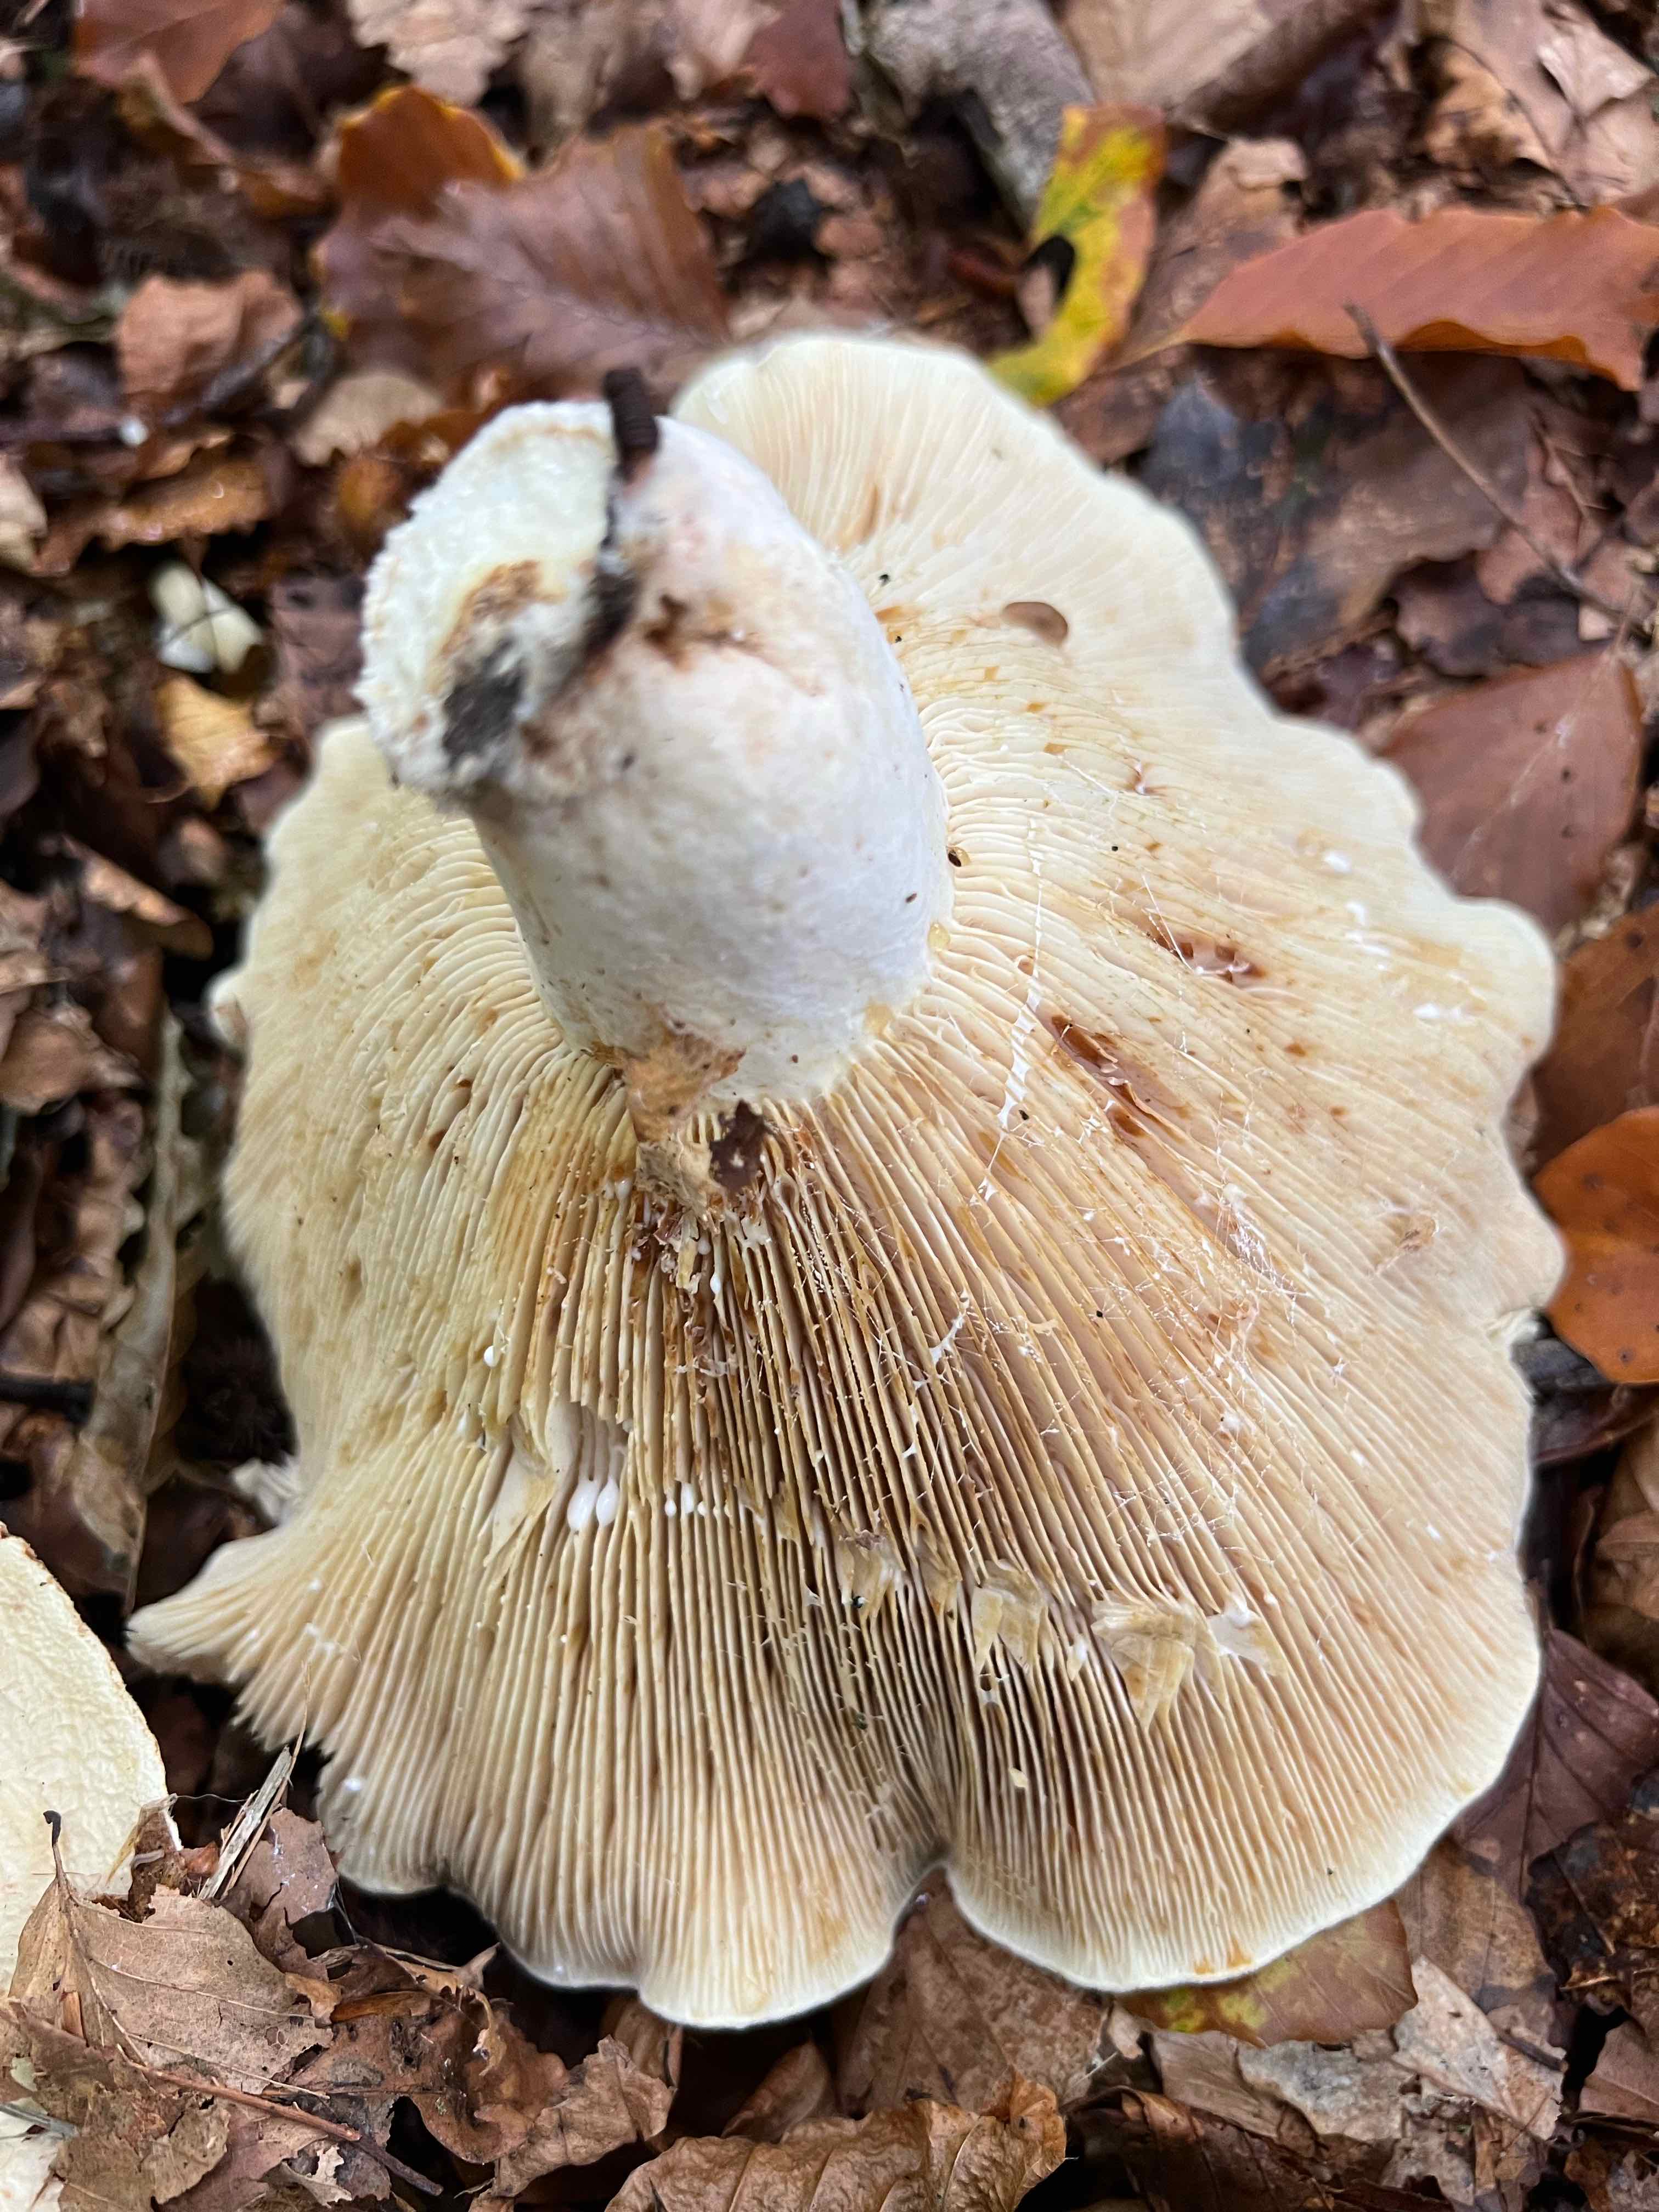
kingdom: Fungi
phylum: Basidiomycota
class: Agaricomycetes
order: Russulales
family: Russulaceae
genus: Lactifluus
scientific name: Lactifluus vellereus
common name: hvidfiltet mælkehat
